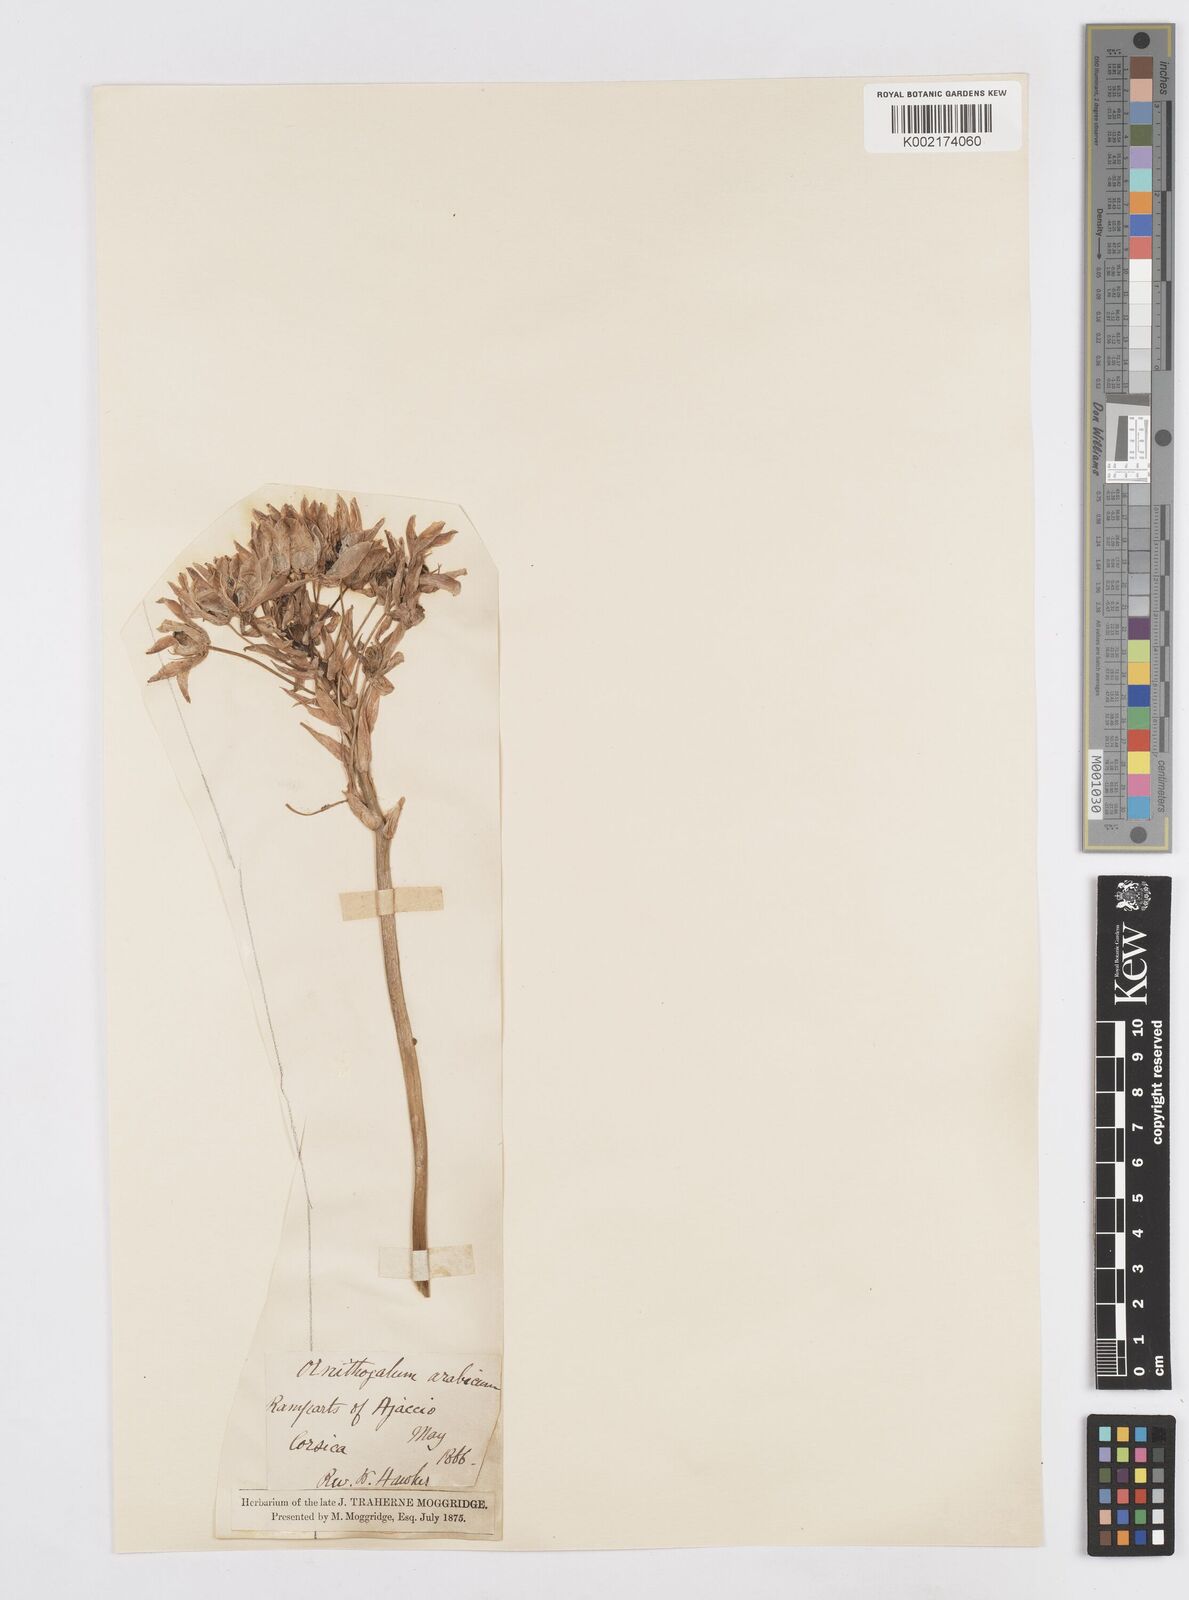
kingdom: Plantae
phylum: Tracheophyta
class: Liliopsida
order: Asparagales
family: Asparagaceae
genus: Ornithogalum
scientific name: Ornithogalum arabicum
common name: Arabian starflower
